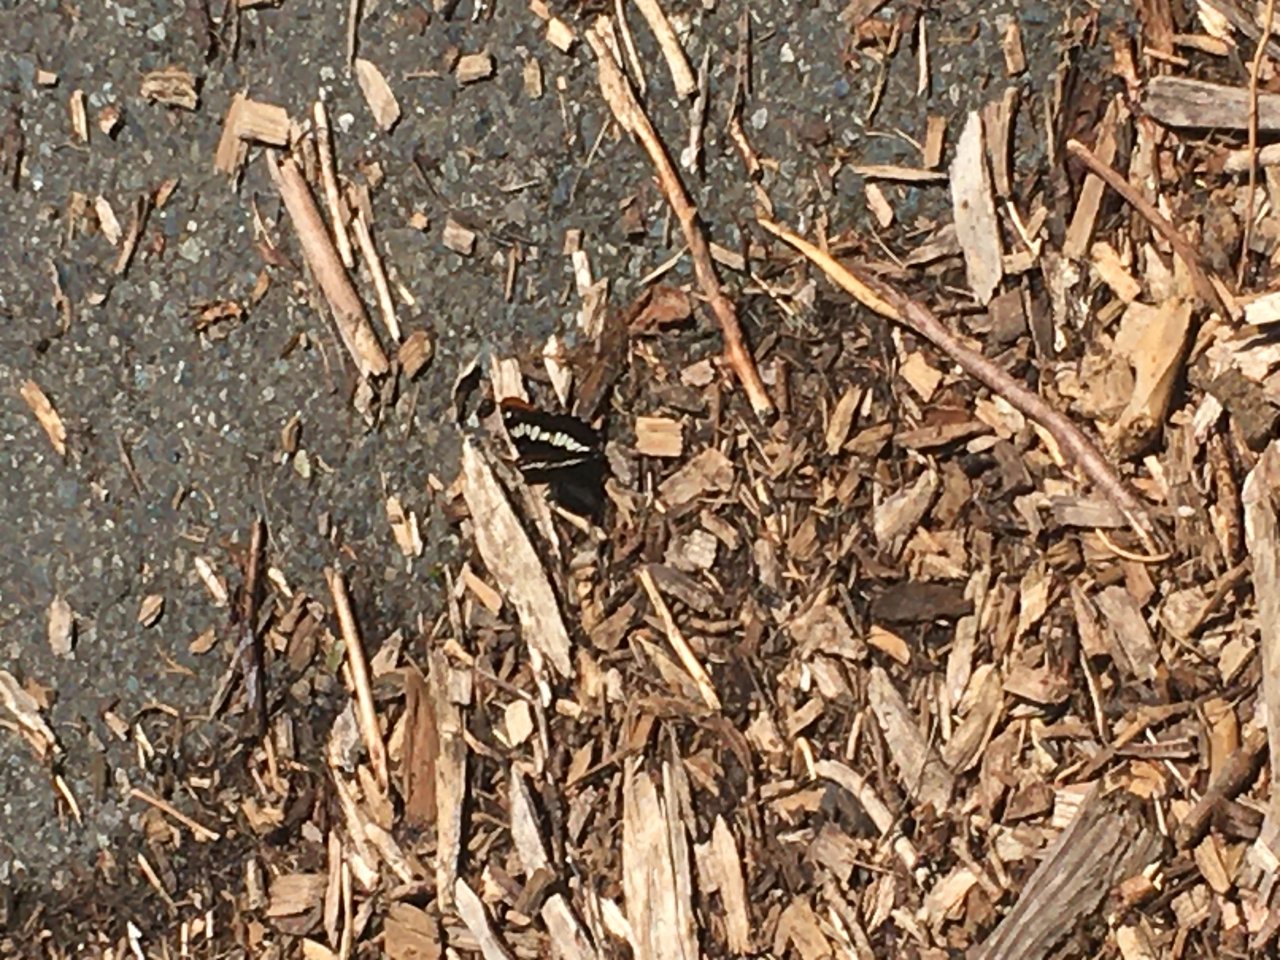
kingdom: Animalia
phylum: Arthropoda
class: Insecta
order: Lepidoptera
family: Nymphalidae
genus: Limenitis
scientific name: Limenitis lorquini
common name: Lorquin's Admiral
